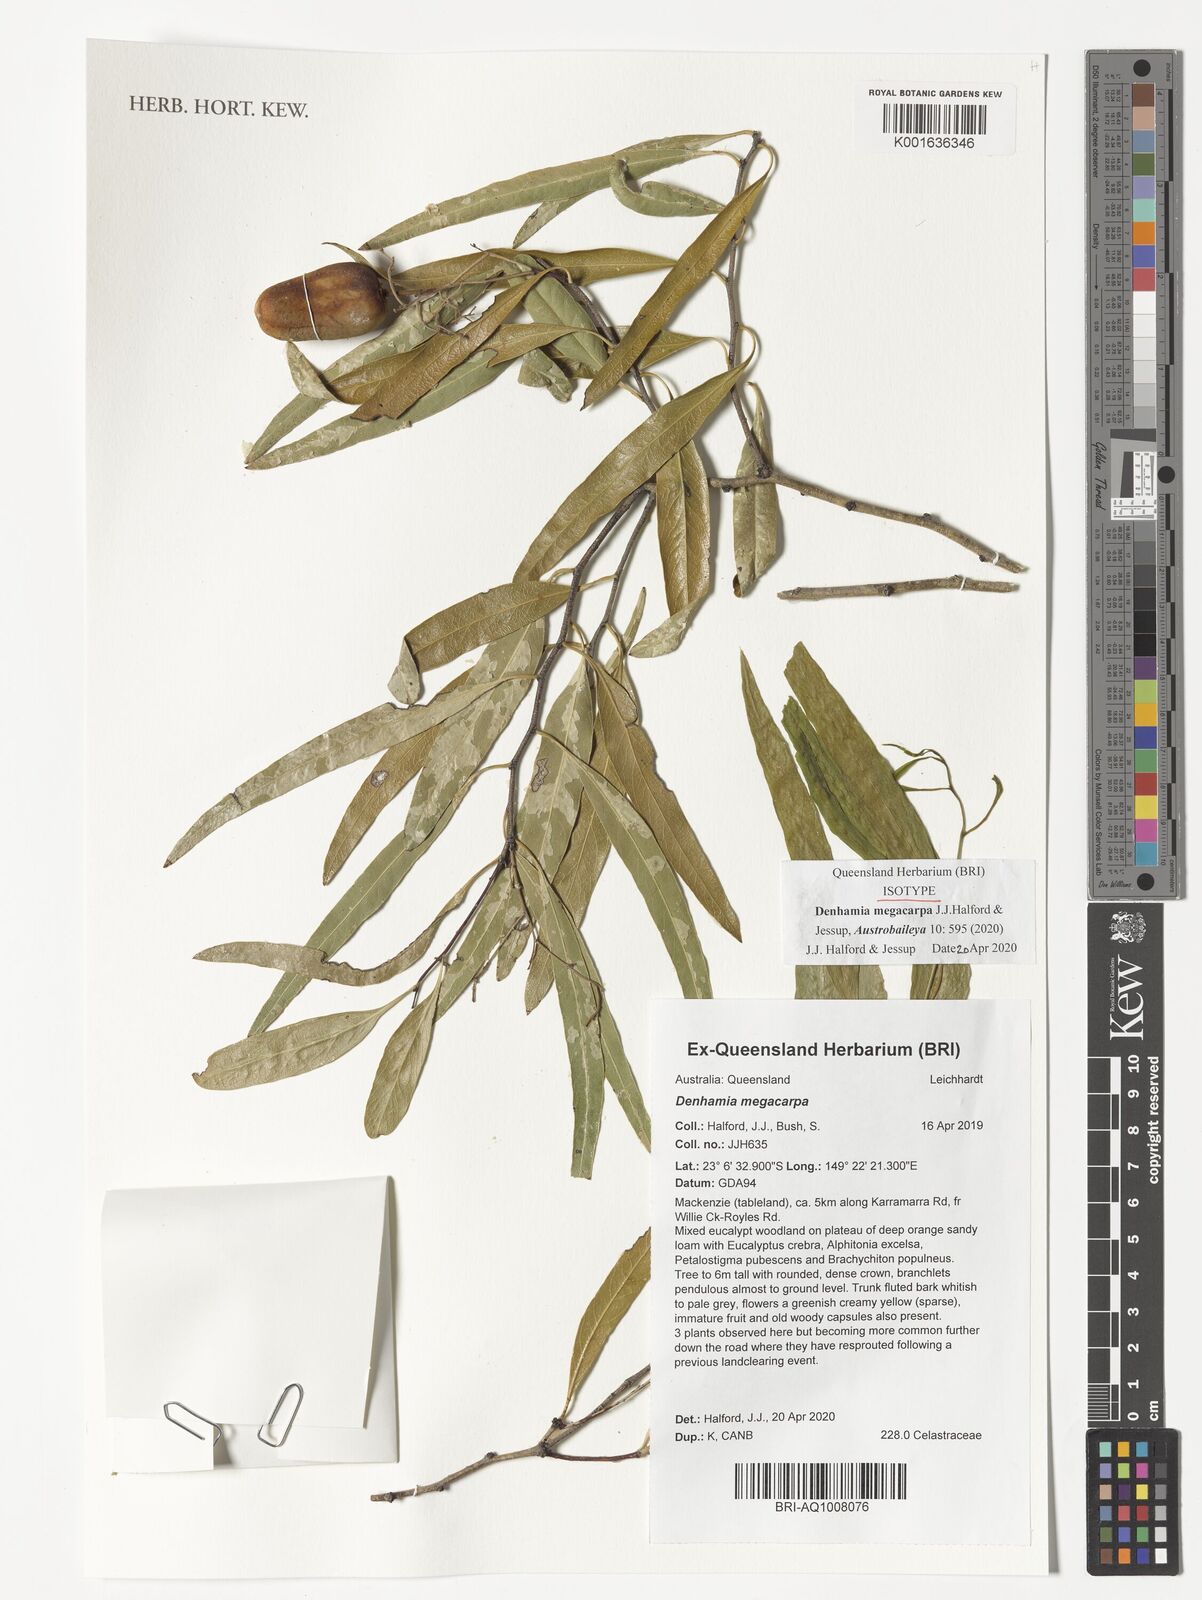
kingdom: Plantae
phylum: Tracheophyta
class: Magnoliopsida
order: Celastrales
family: Celastraceae
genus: Denhamia
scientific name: Denhamia
